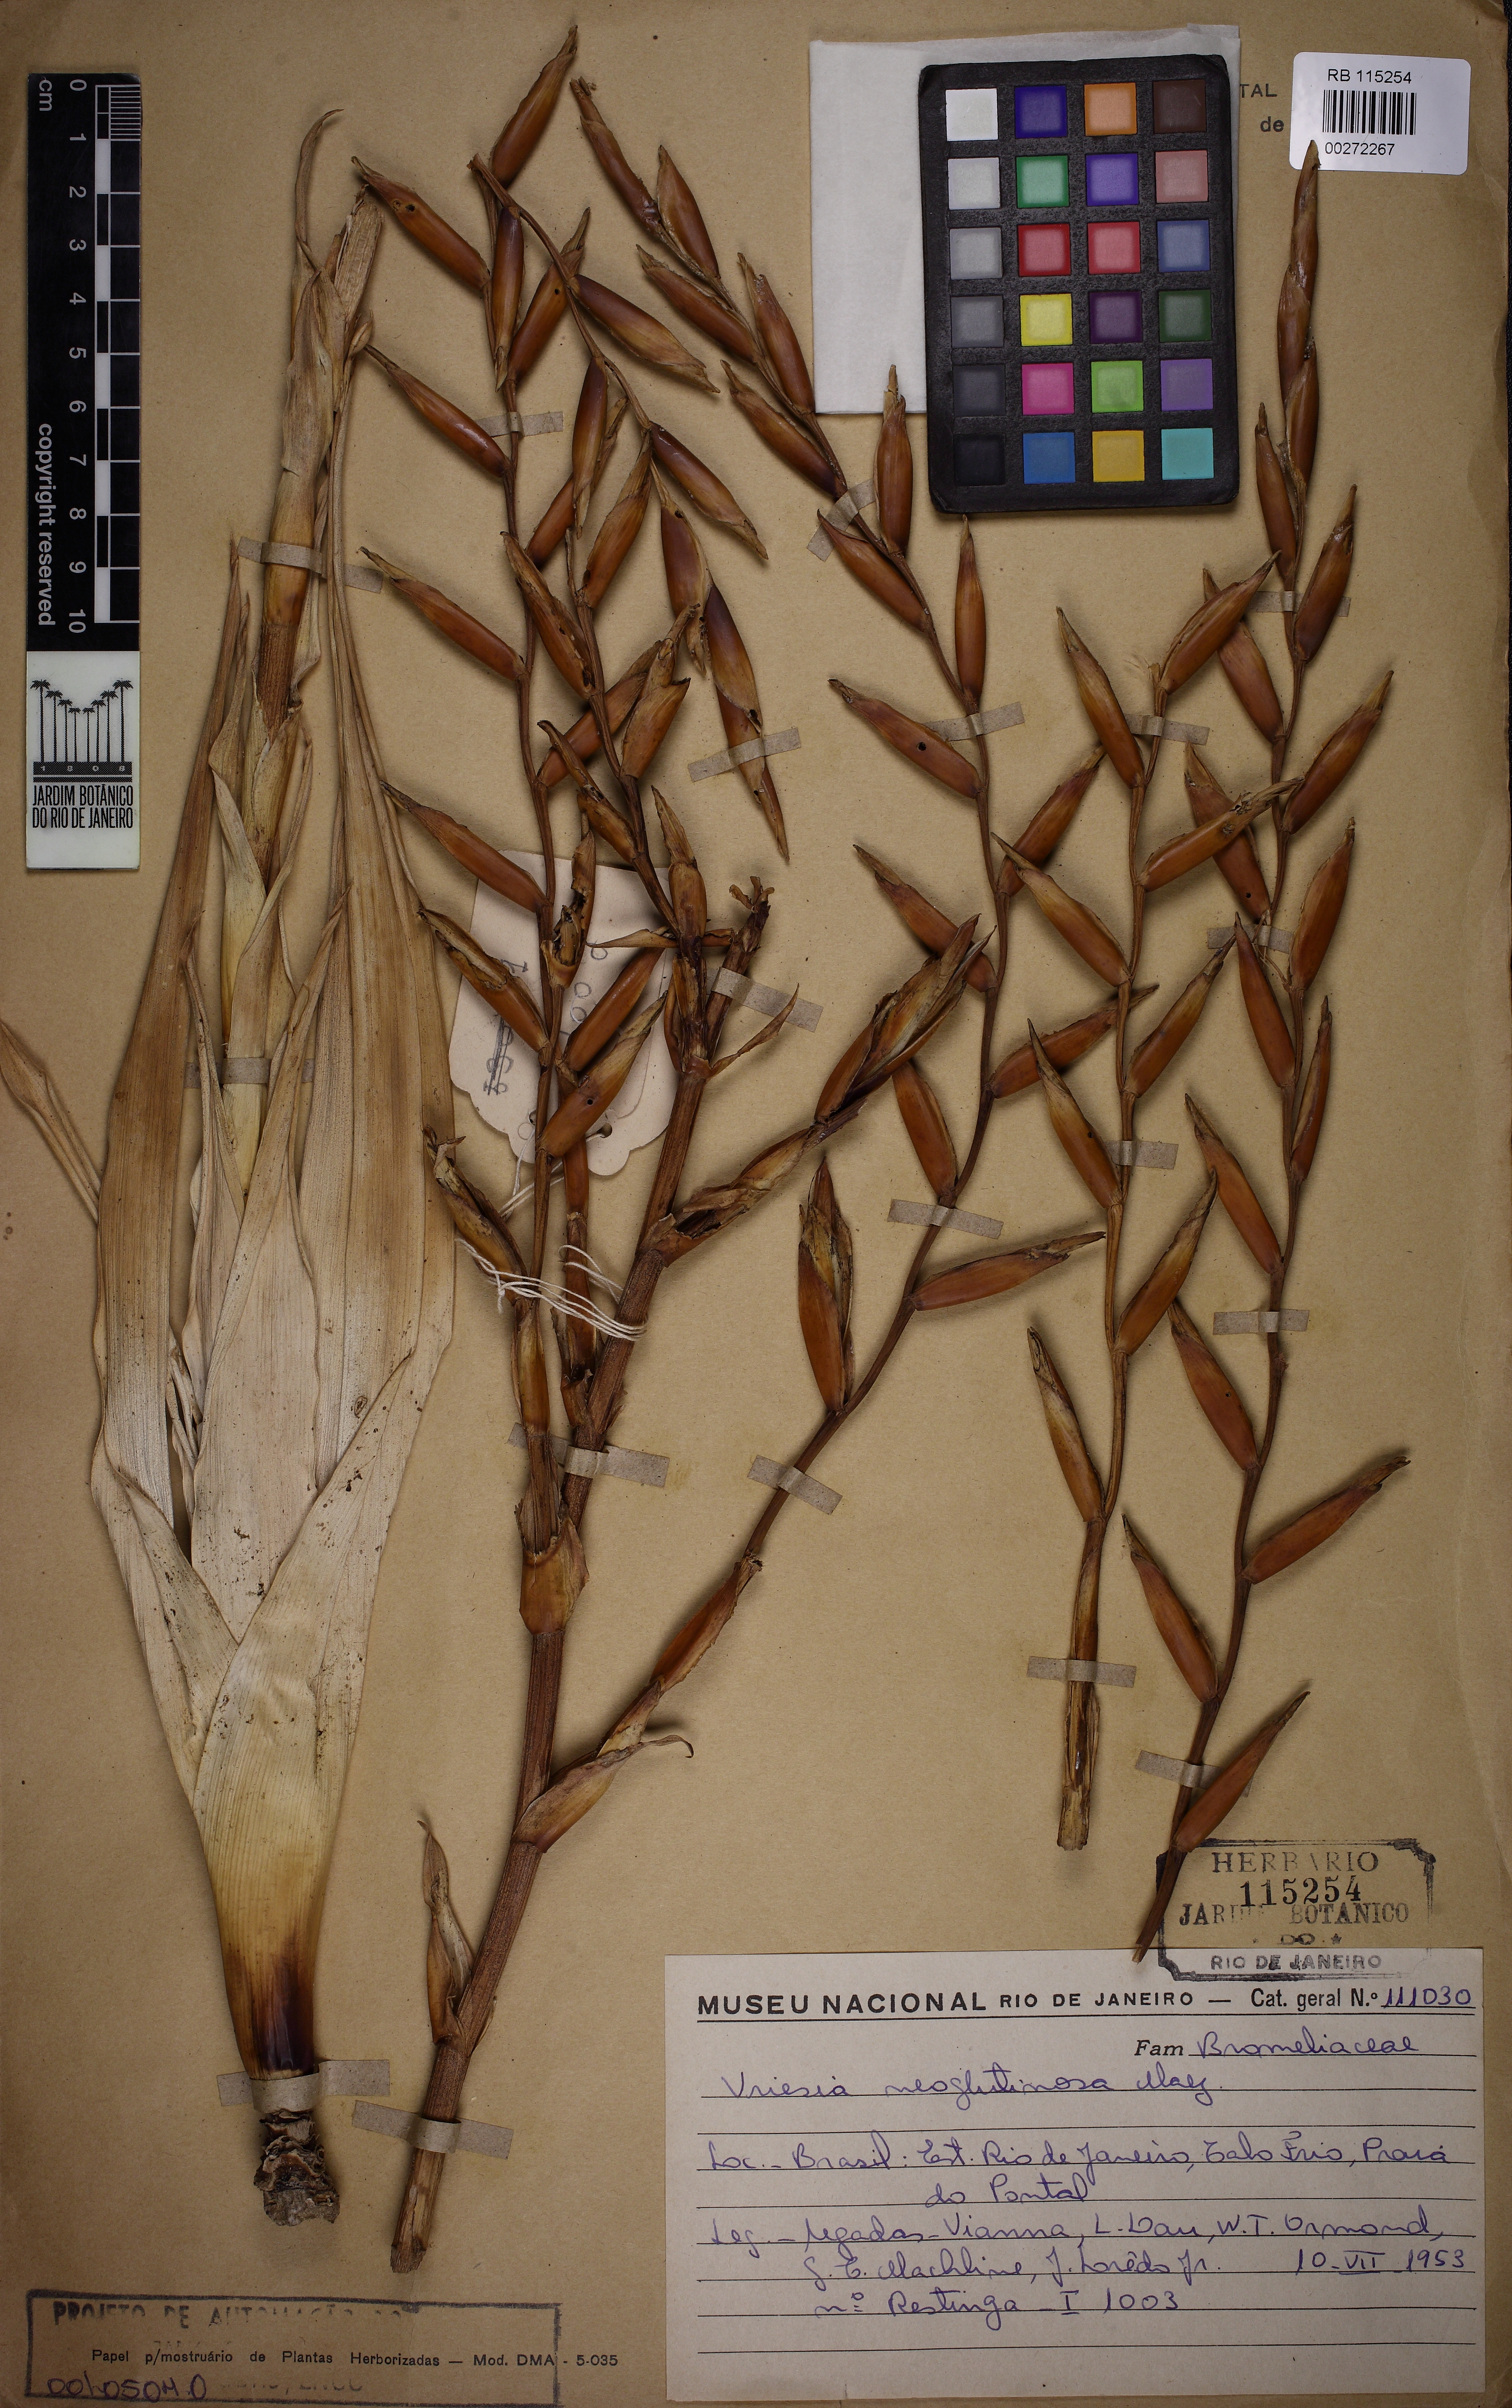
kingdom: Plantae
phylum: Tracheophyta
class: Liliopsida
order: Poales
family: Bromeliaceae
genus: Vriesea
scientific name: Vriesea neoglutinosa
